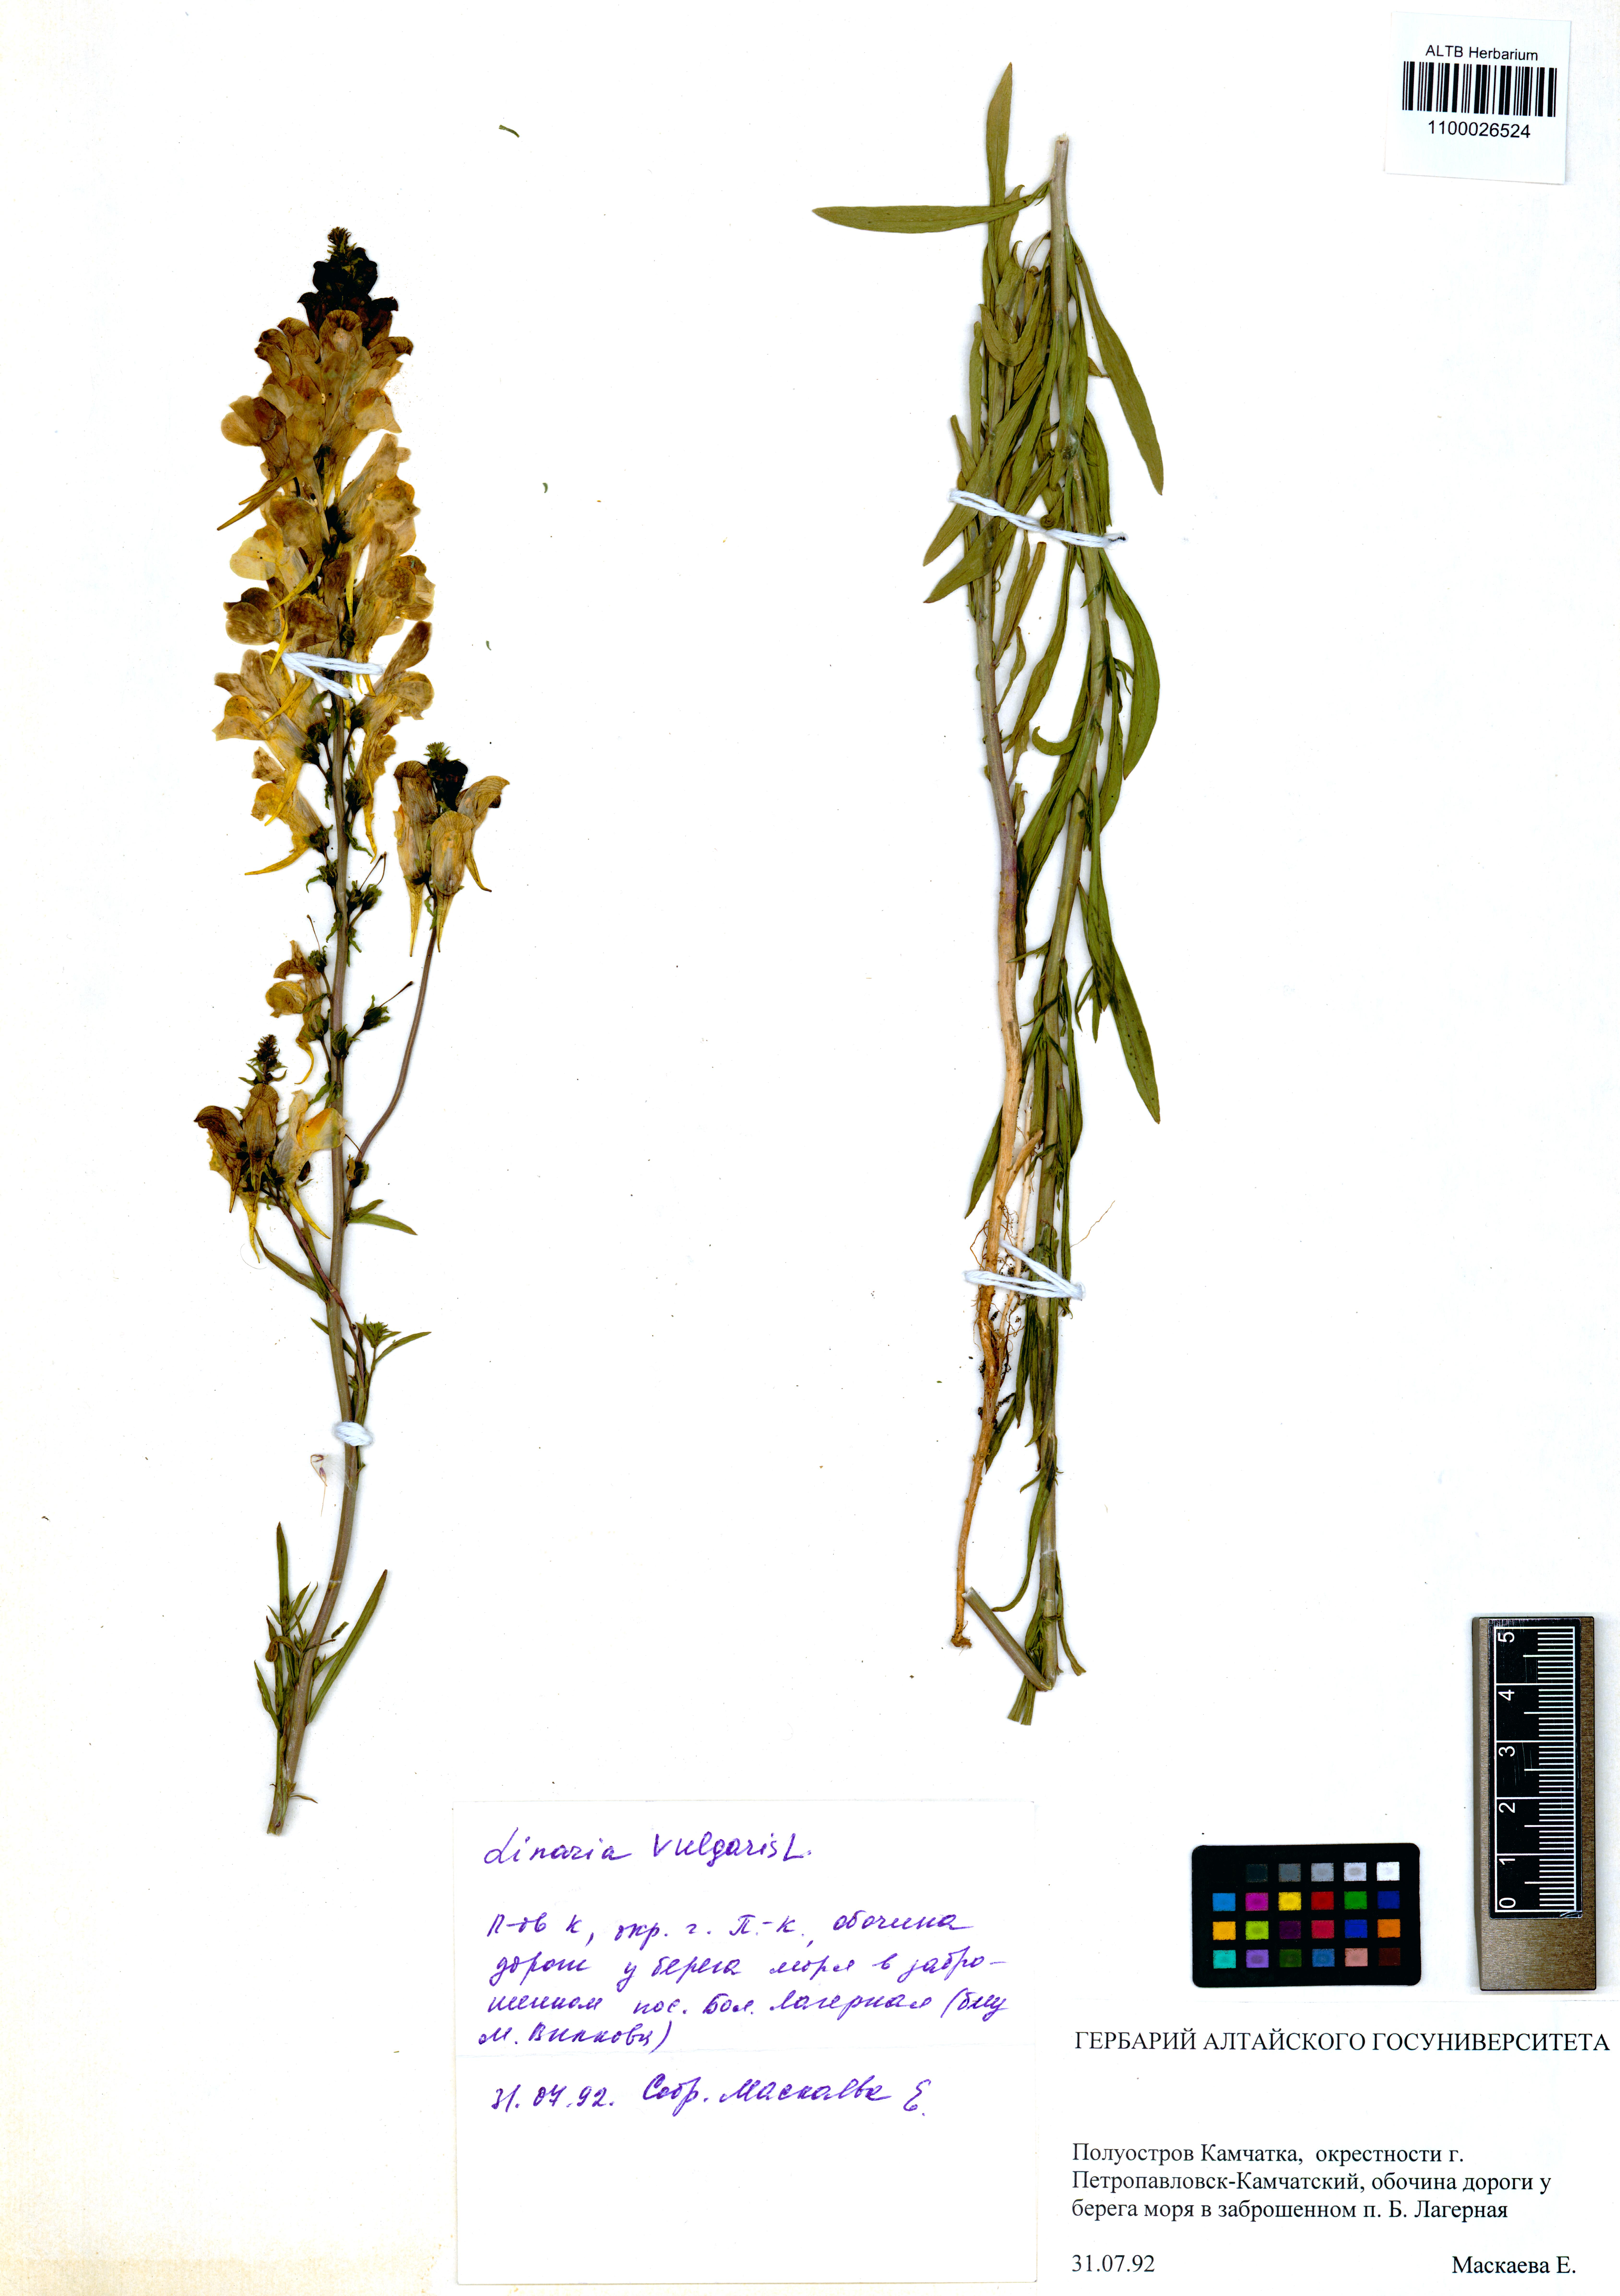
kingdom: Plantae
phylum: Tracheophyta
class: Magnoliopsida
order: Lamiales
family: Plantaginaceae
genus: Linaria
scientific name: Linaria vulgaris
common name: Butter and eggs
